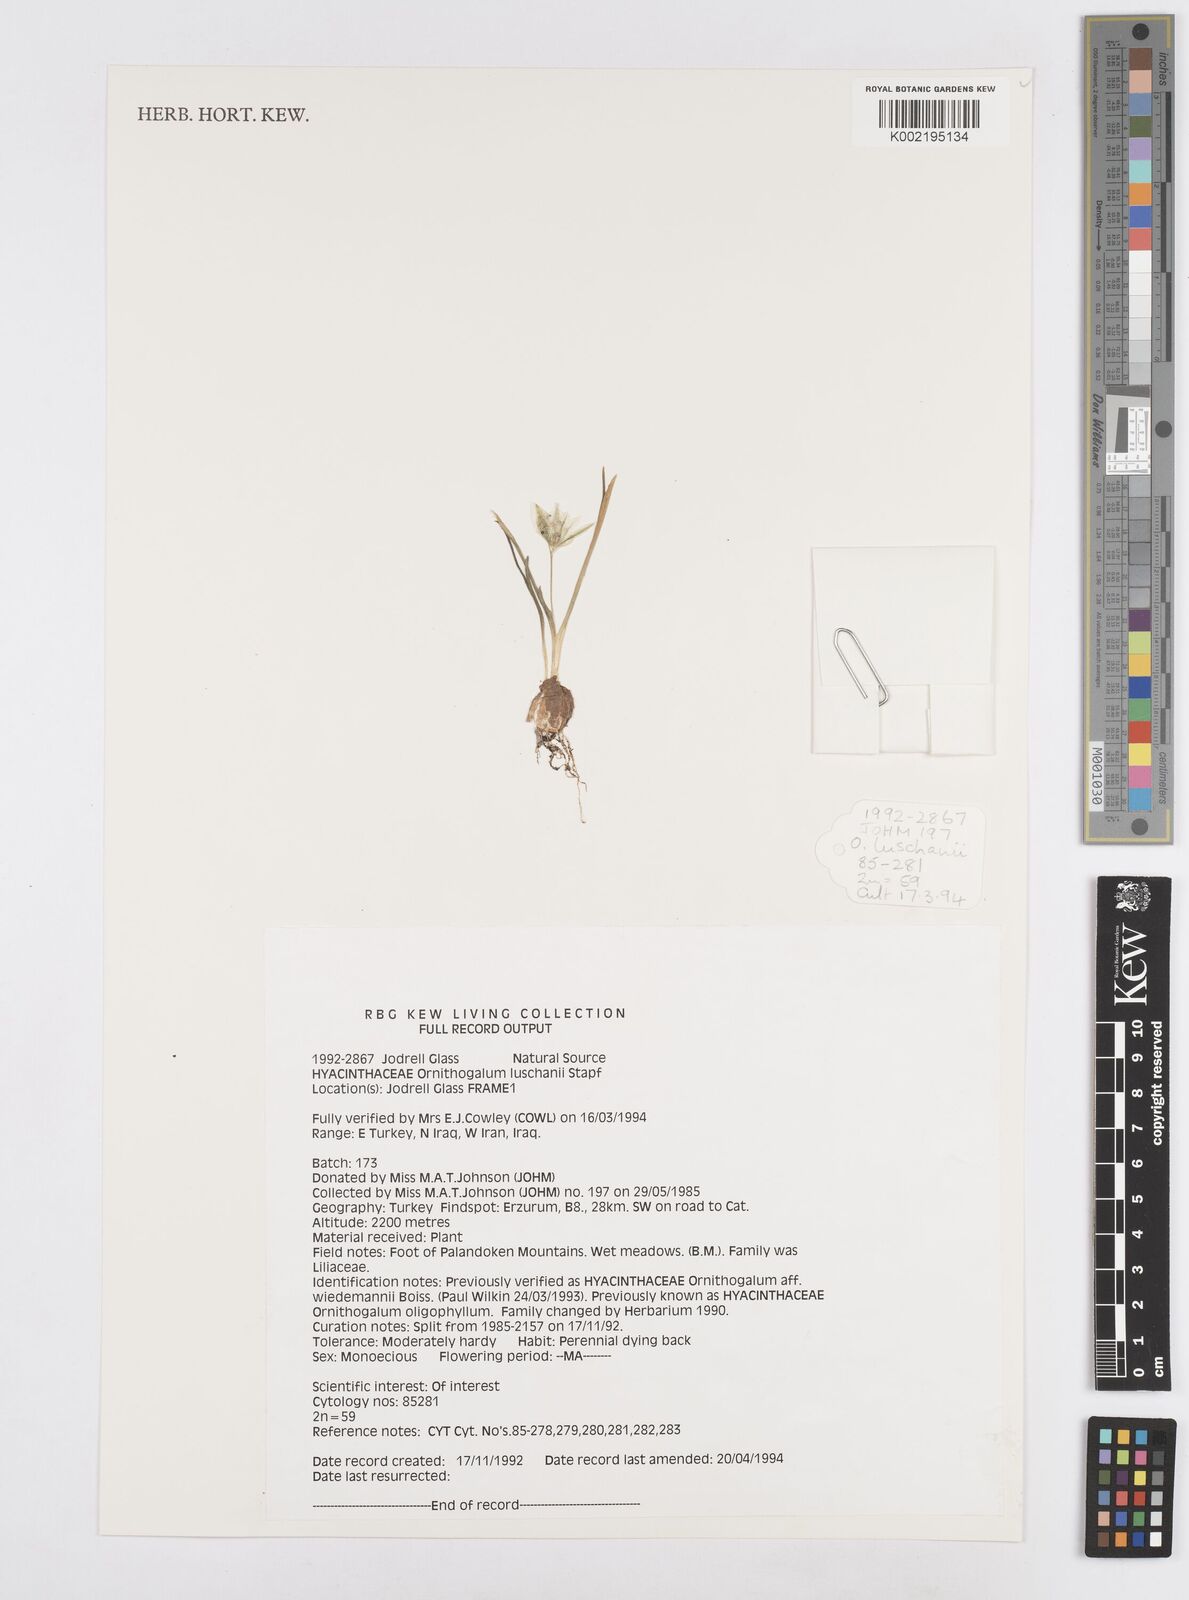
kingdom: Plantae
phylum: Tracheophyta
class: Liliopsida
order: Asparagales
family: Asparagaceae
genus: Ornithogalum
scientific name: Ornithogalum luschanii
